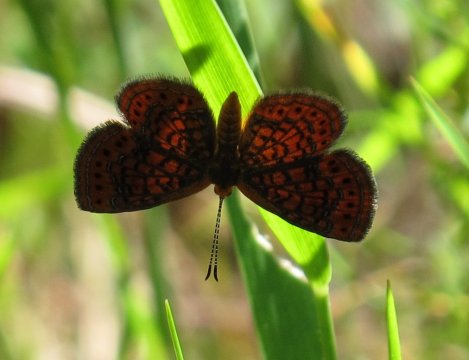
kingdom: Animalia
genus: Calephelis
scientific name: Calephelis virginiensis
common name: Little Metalmark
